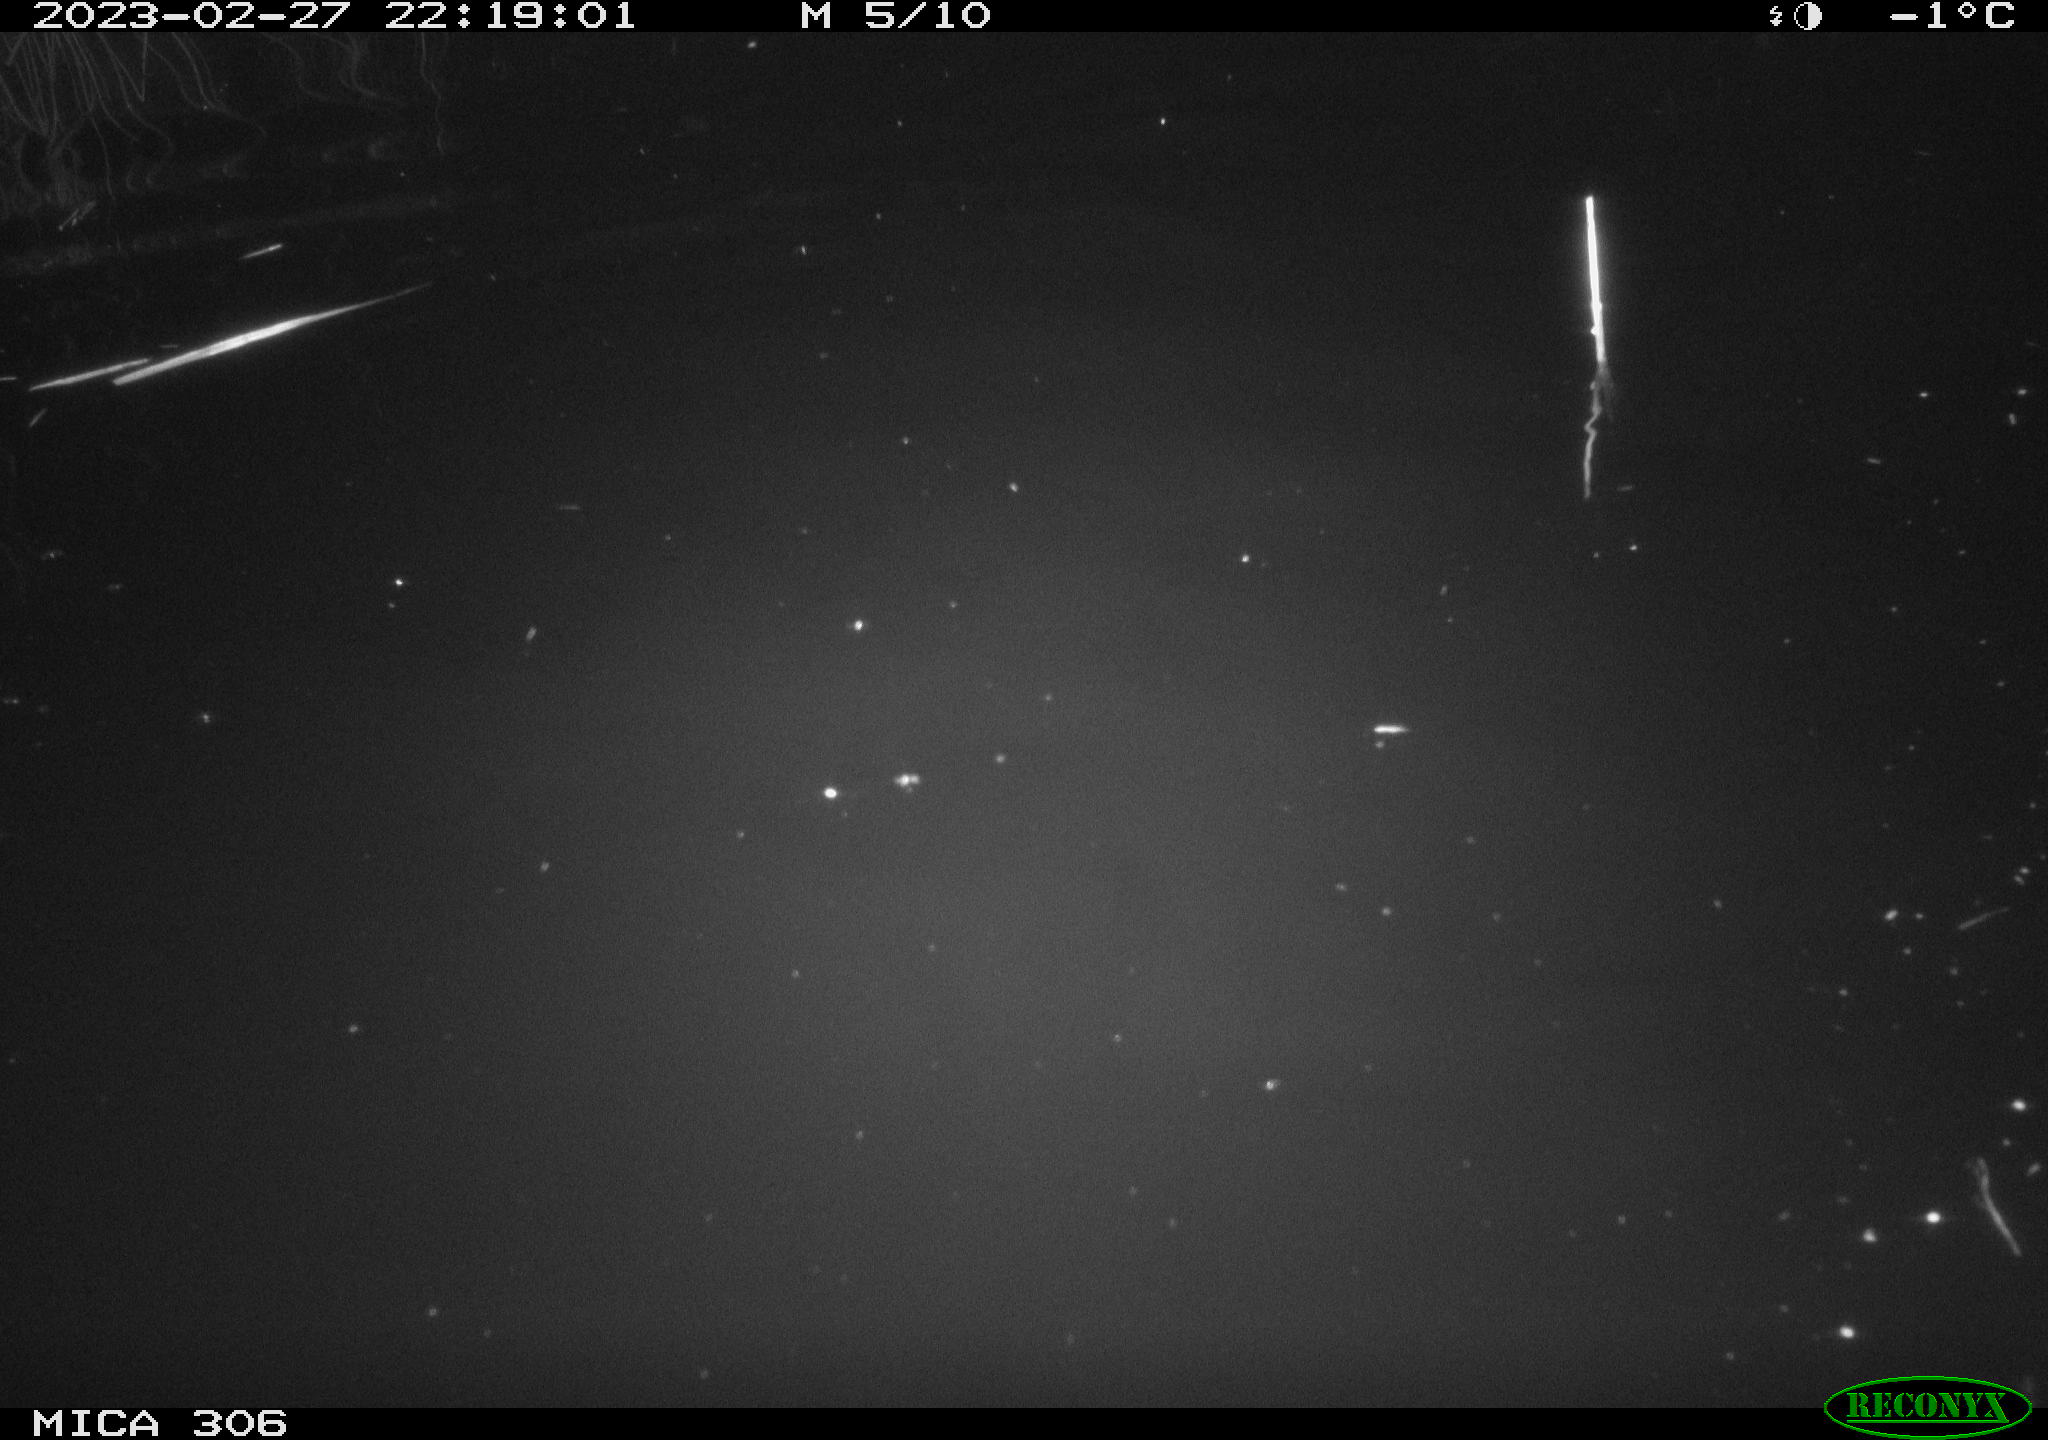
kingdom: Animalia
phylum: Chordata
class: Mammalia
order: Rodentia
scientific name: Rodentia
